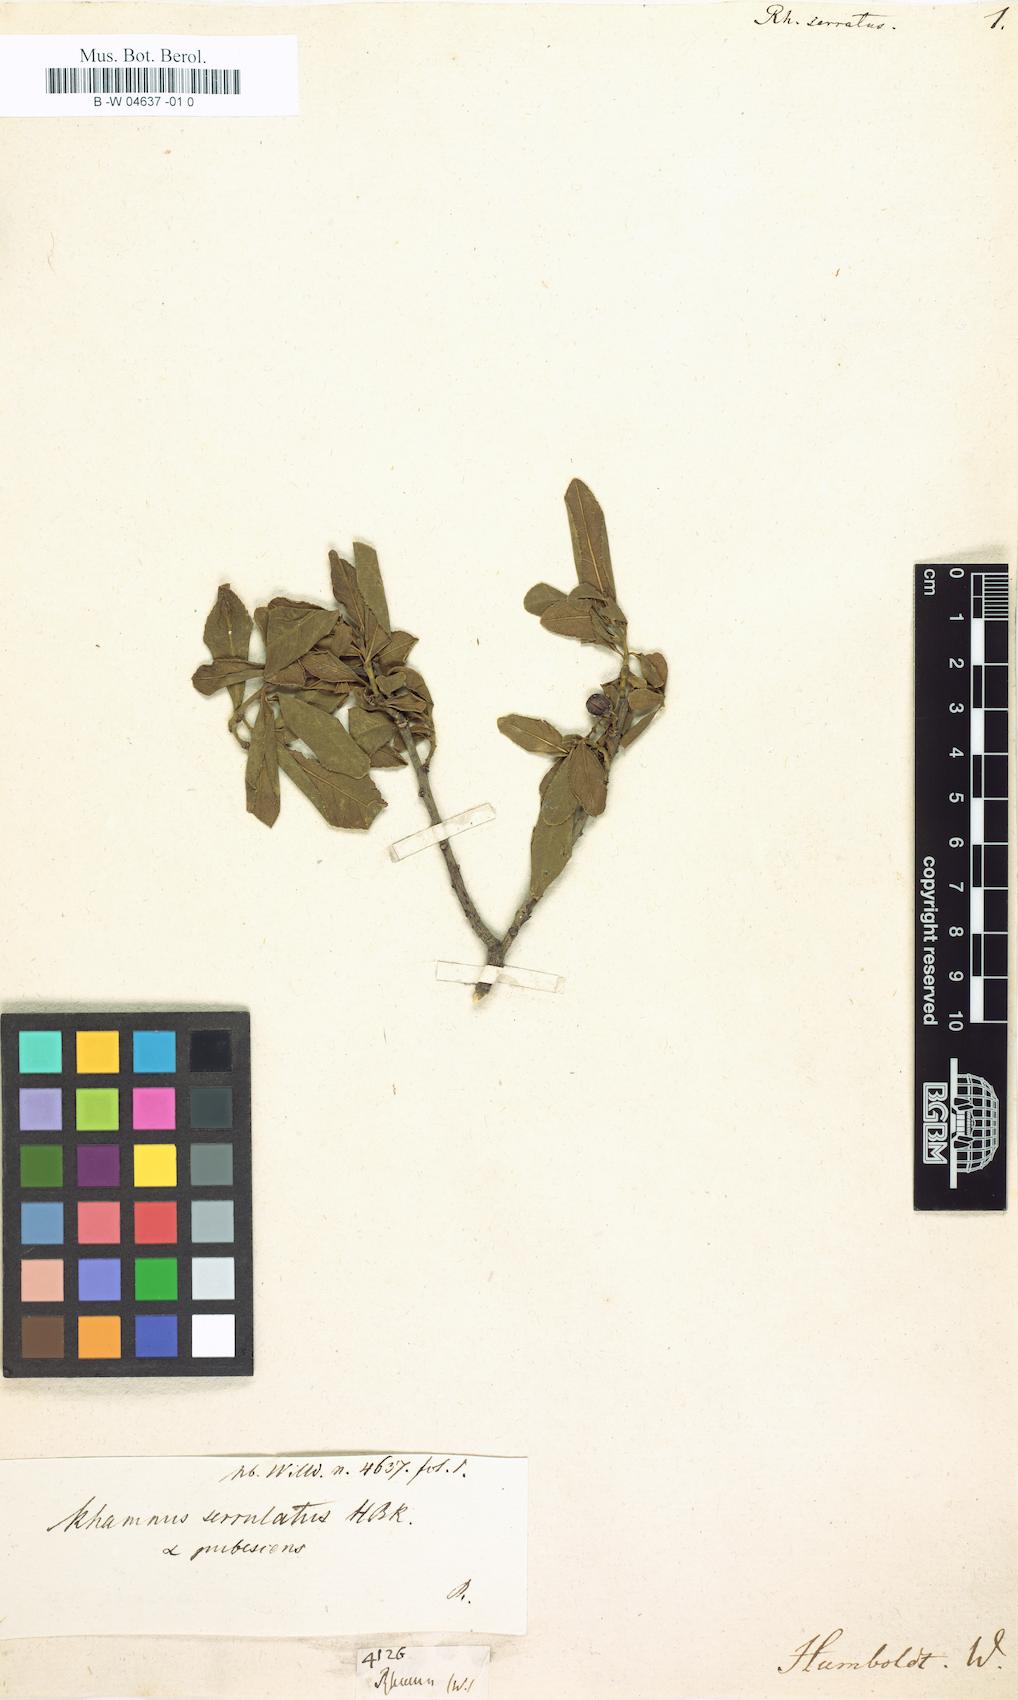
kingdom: Plantae
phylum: Tracheophyta
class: Magnoliopsida
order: Rosales
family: Rhamnaceae
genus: Rhamnus
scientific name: Rhamnus serrata
